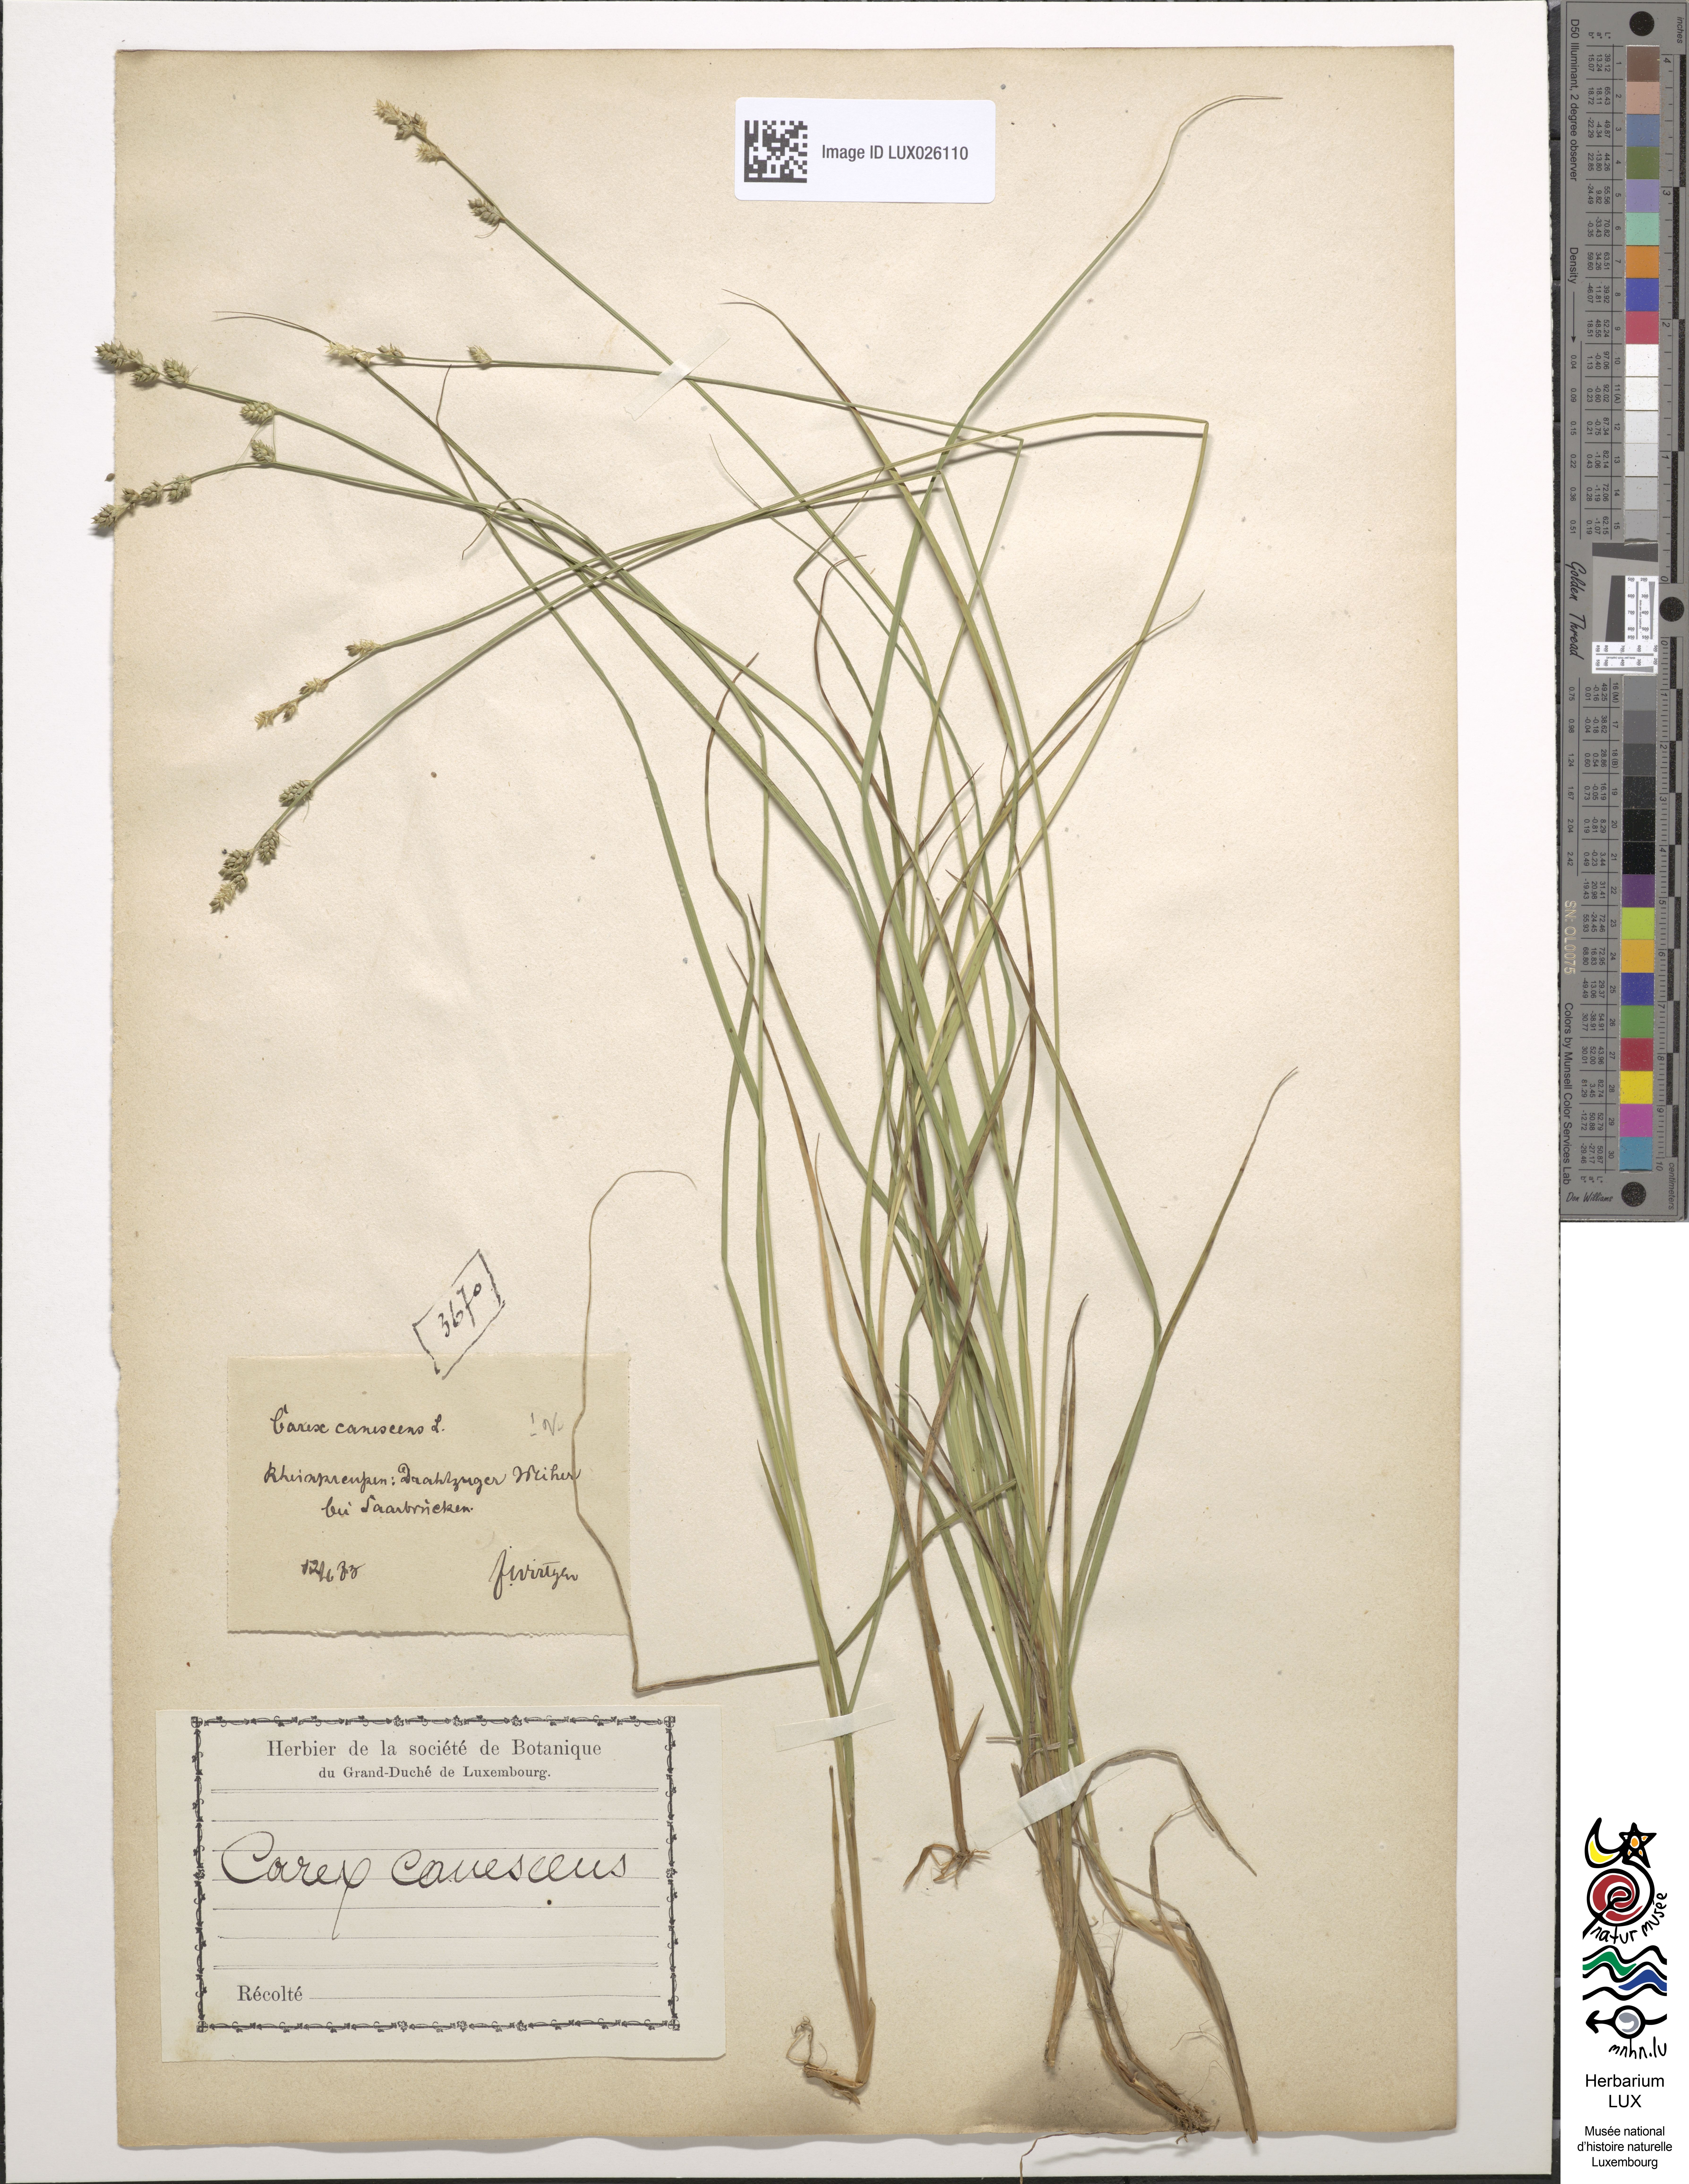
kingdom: Plantae
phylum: Tracheophyta
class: Liliopsida
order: Poales
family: Cyperaceae
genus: Carex
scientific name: Carex canescens
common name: White sedge
